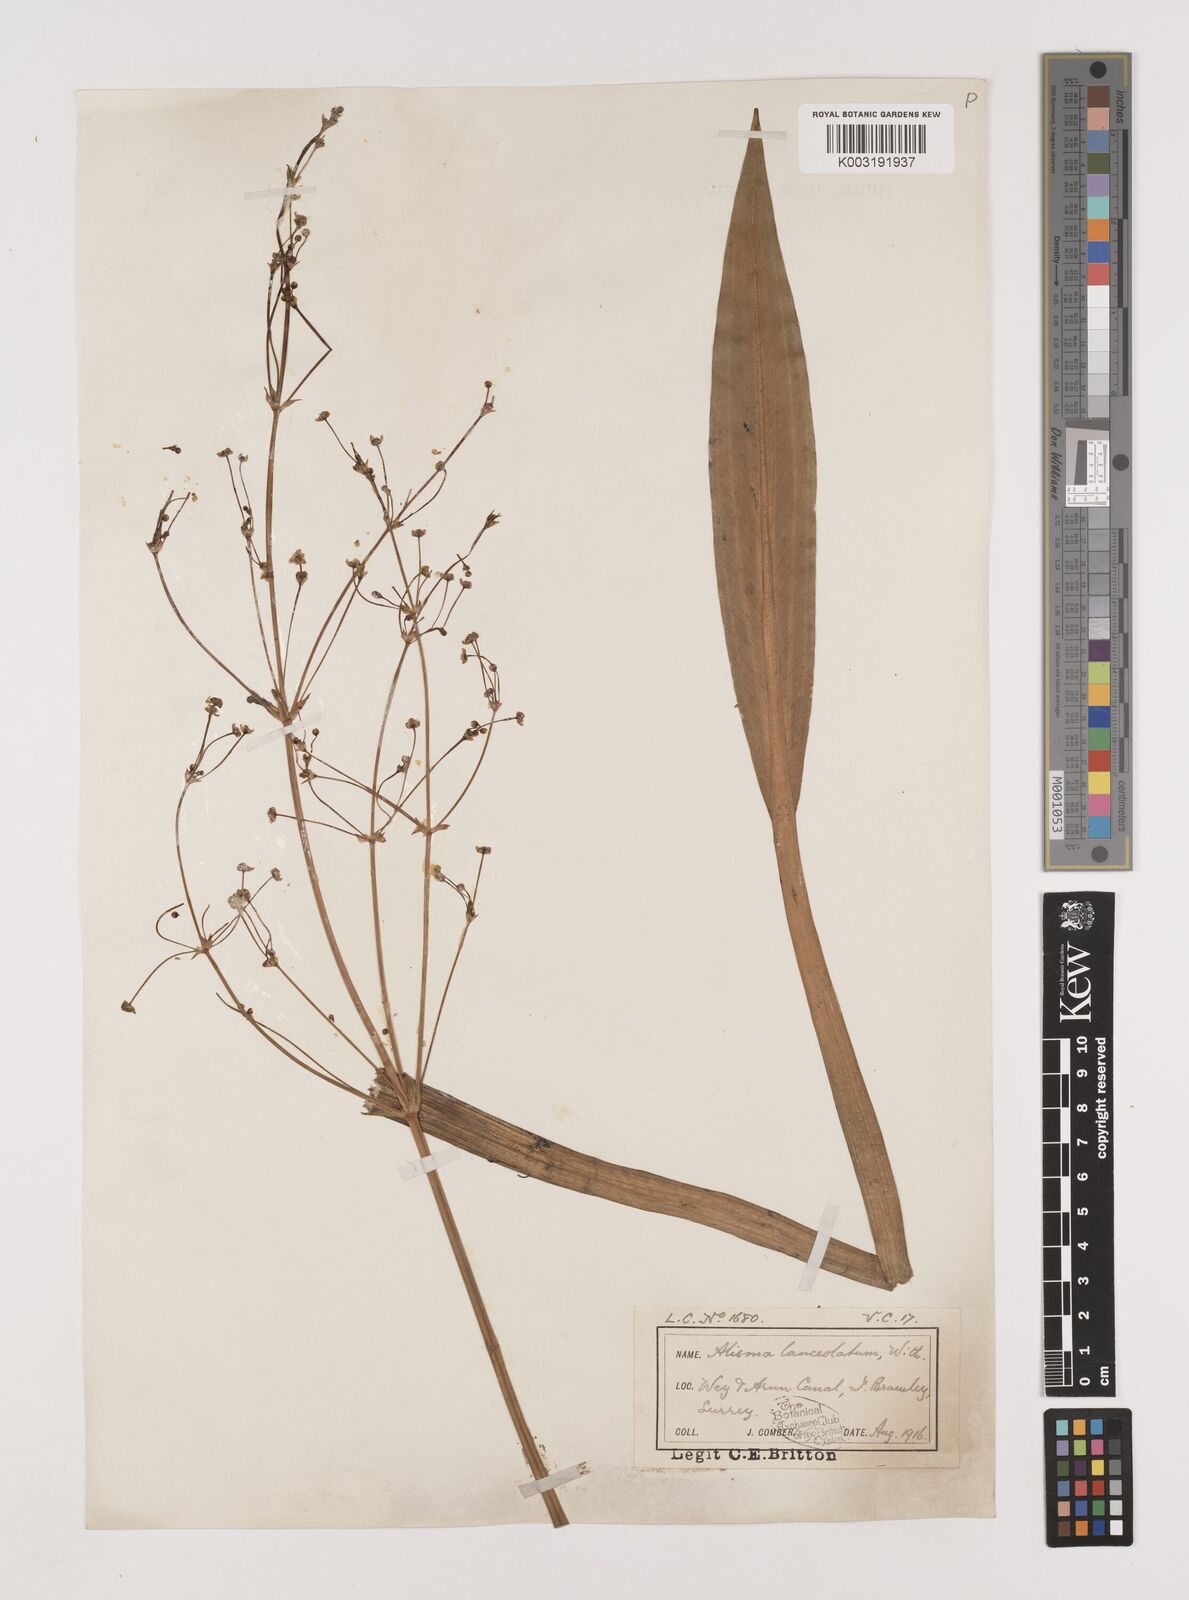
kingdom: Plantae
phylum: Tracheophyta
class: Liliopsida
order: Alismatales
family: Alismataceae
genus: Alisma
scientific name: Alisma lanceolatum
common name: Narrow-leaved water-plantain
